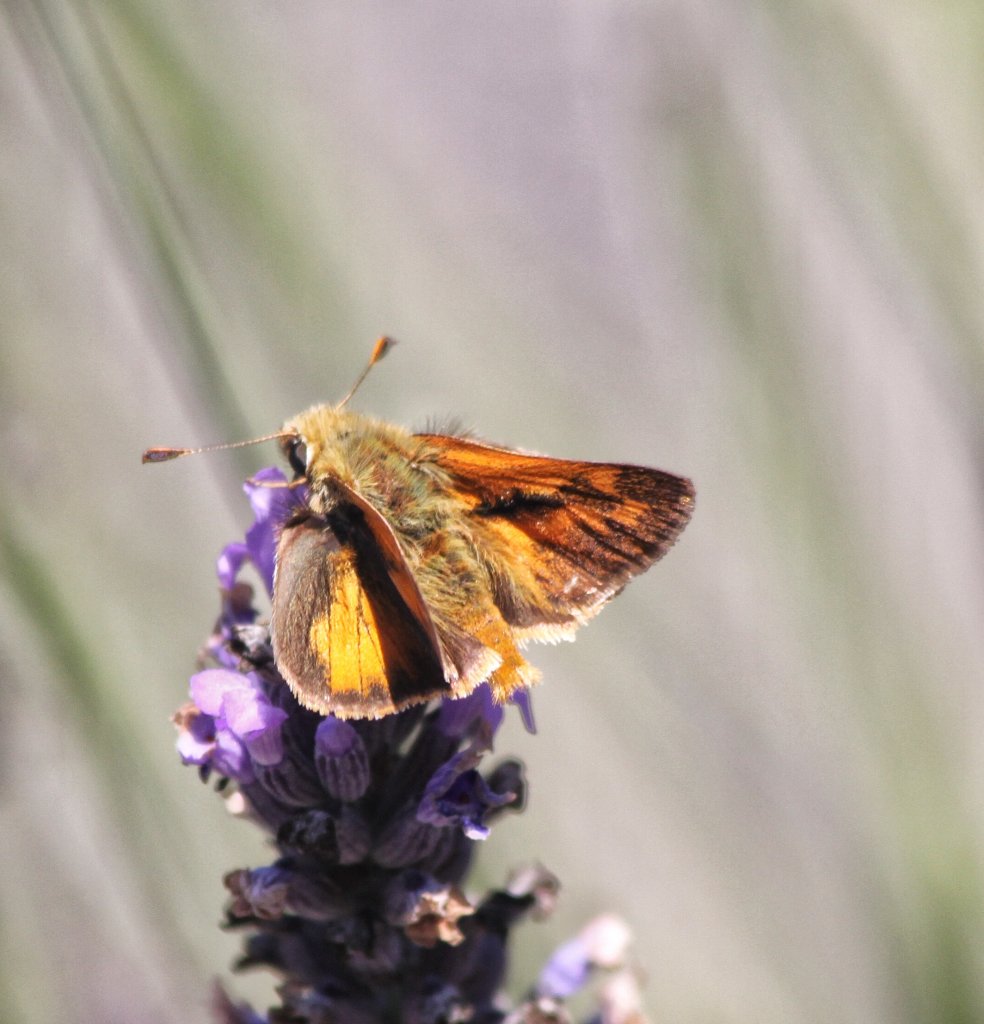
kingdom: Animalia
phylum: Arthropoda
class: Insecta
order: Lepidoptera
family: Hesperiidae
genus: Ochlodes
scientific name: Ochlodes sylvanoides
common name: Woodland Skipper
